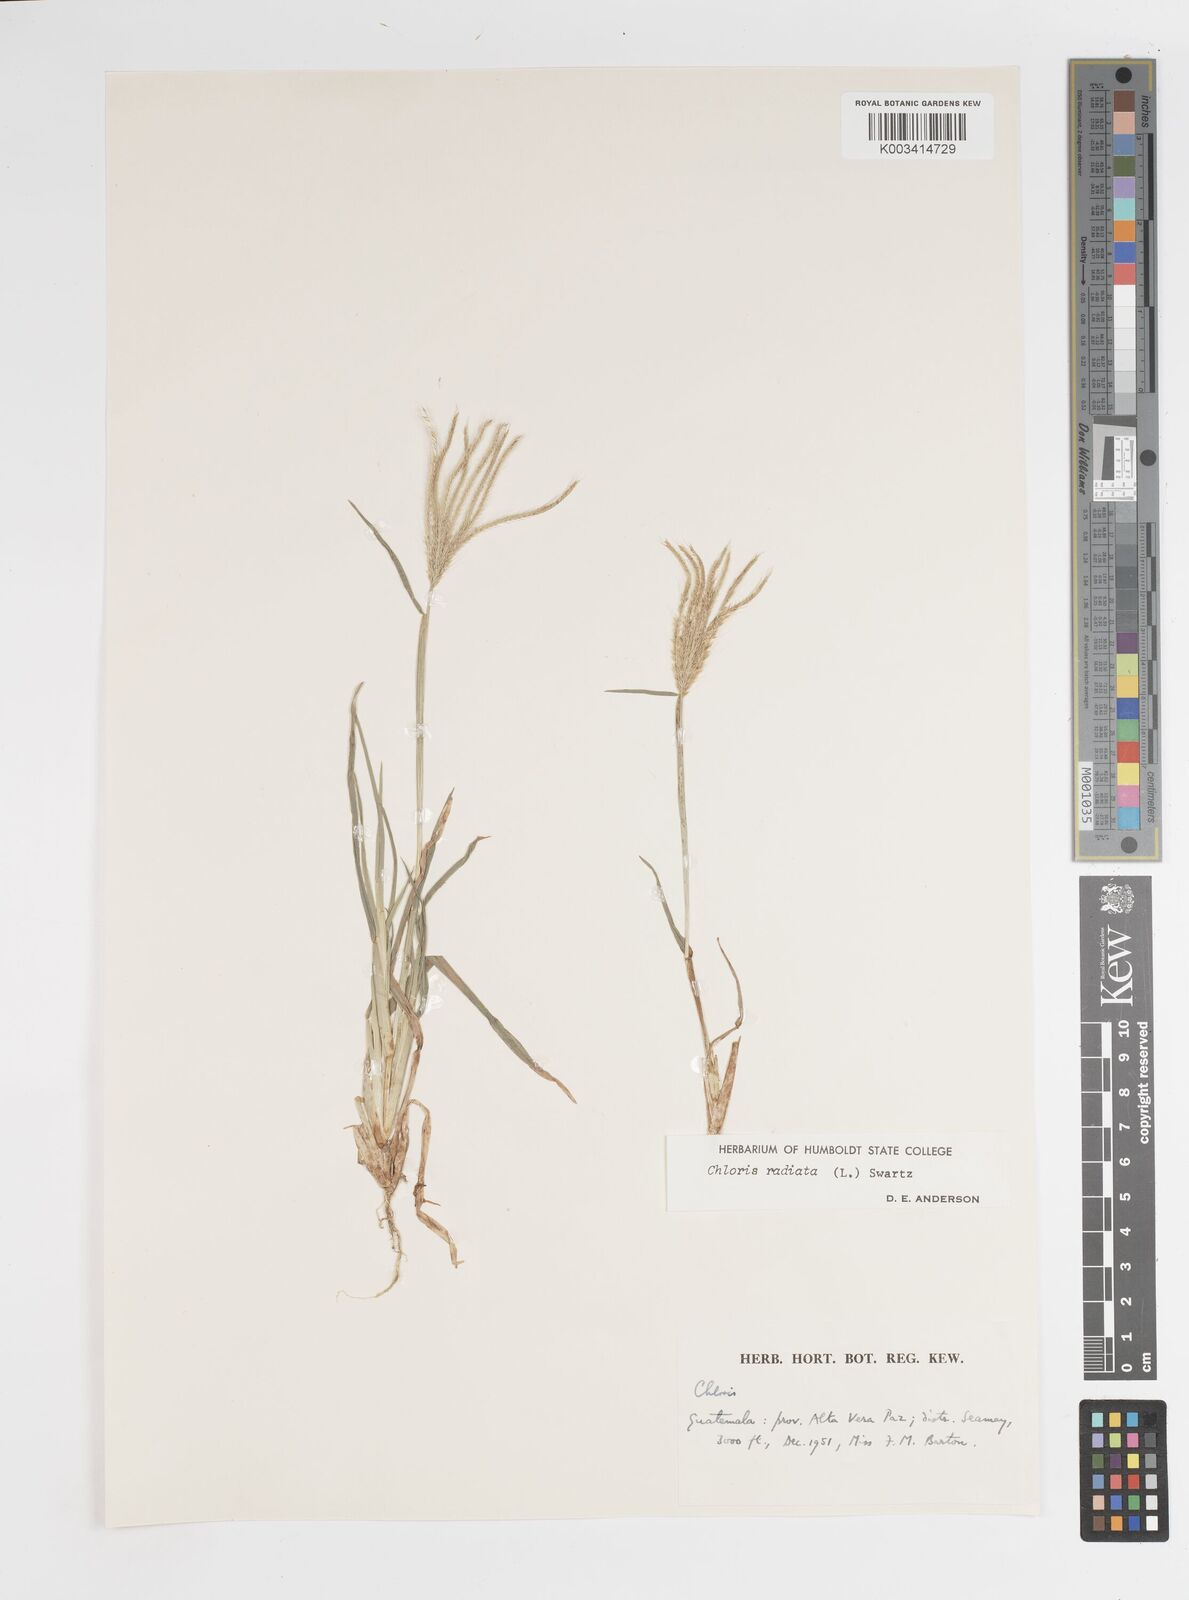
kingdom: Plantae
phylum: Tracheophyta
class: Liliopsida
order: Poales
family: Poaceae
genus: Chloris
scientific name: Chloris radiata
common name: Radiate fingergrass
